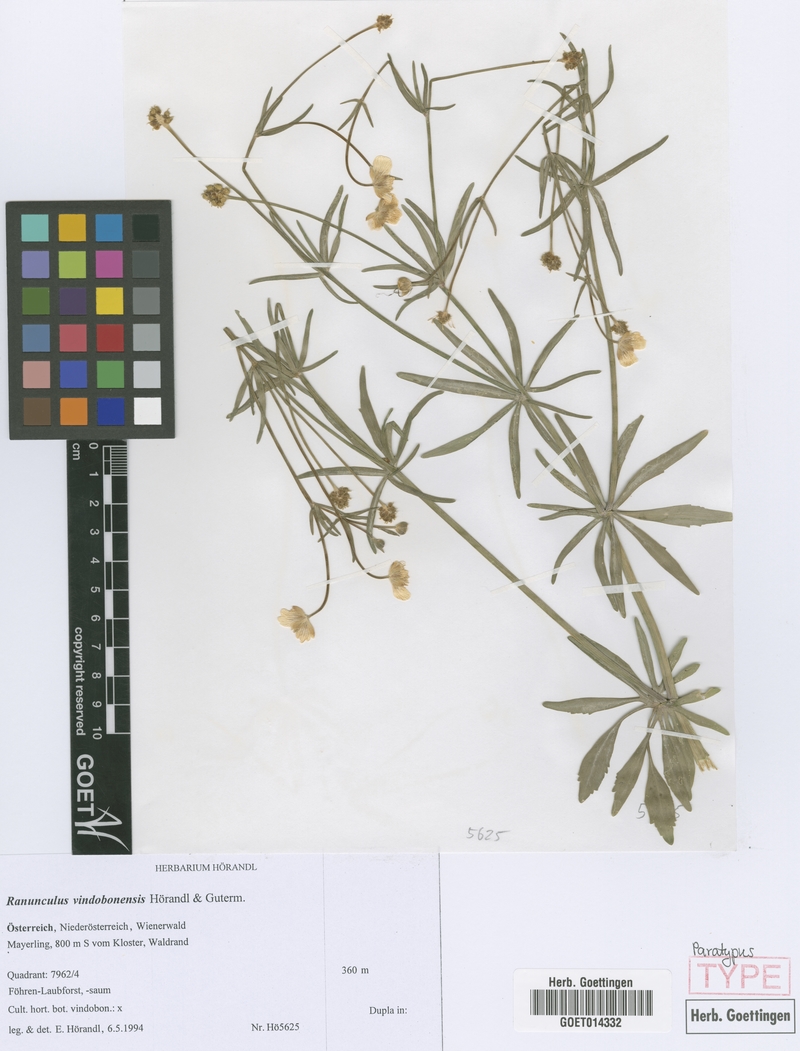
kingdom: Plantae
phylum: Tracheophyta
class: Magnoliopsida
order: Ranunculales
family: Ranunculaceae
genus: Ranunculus
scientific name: Ranunculus vindobonensis
